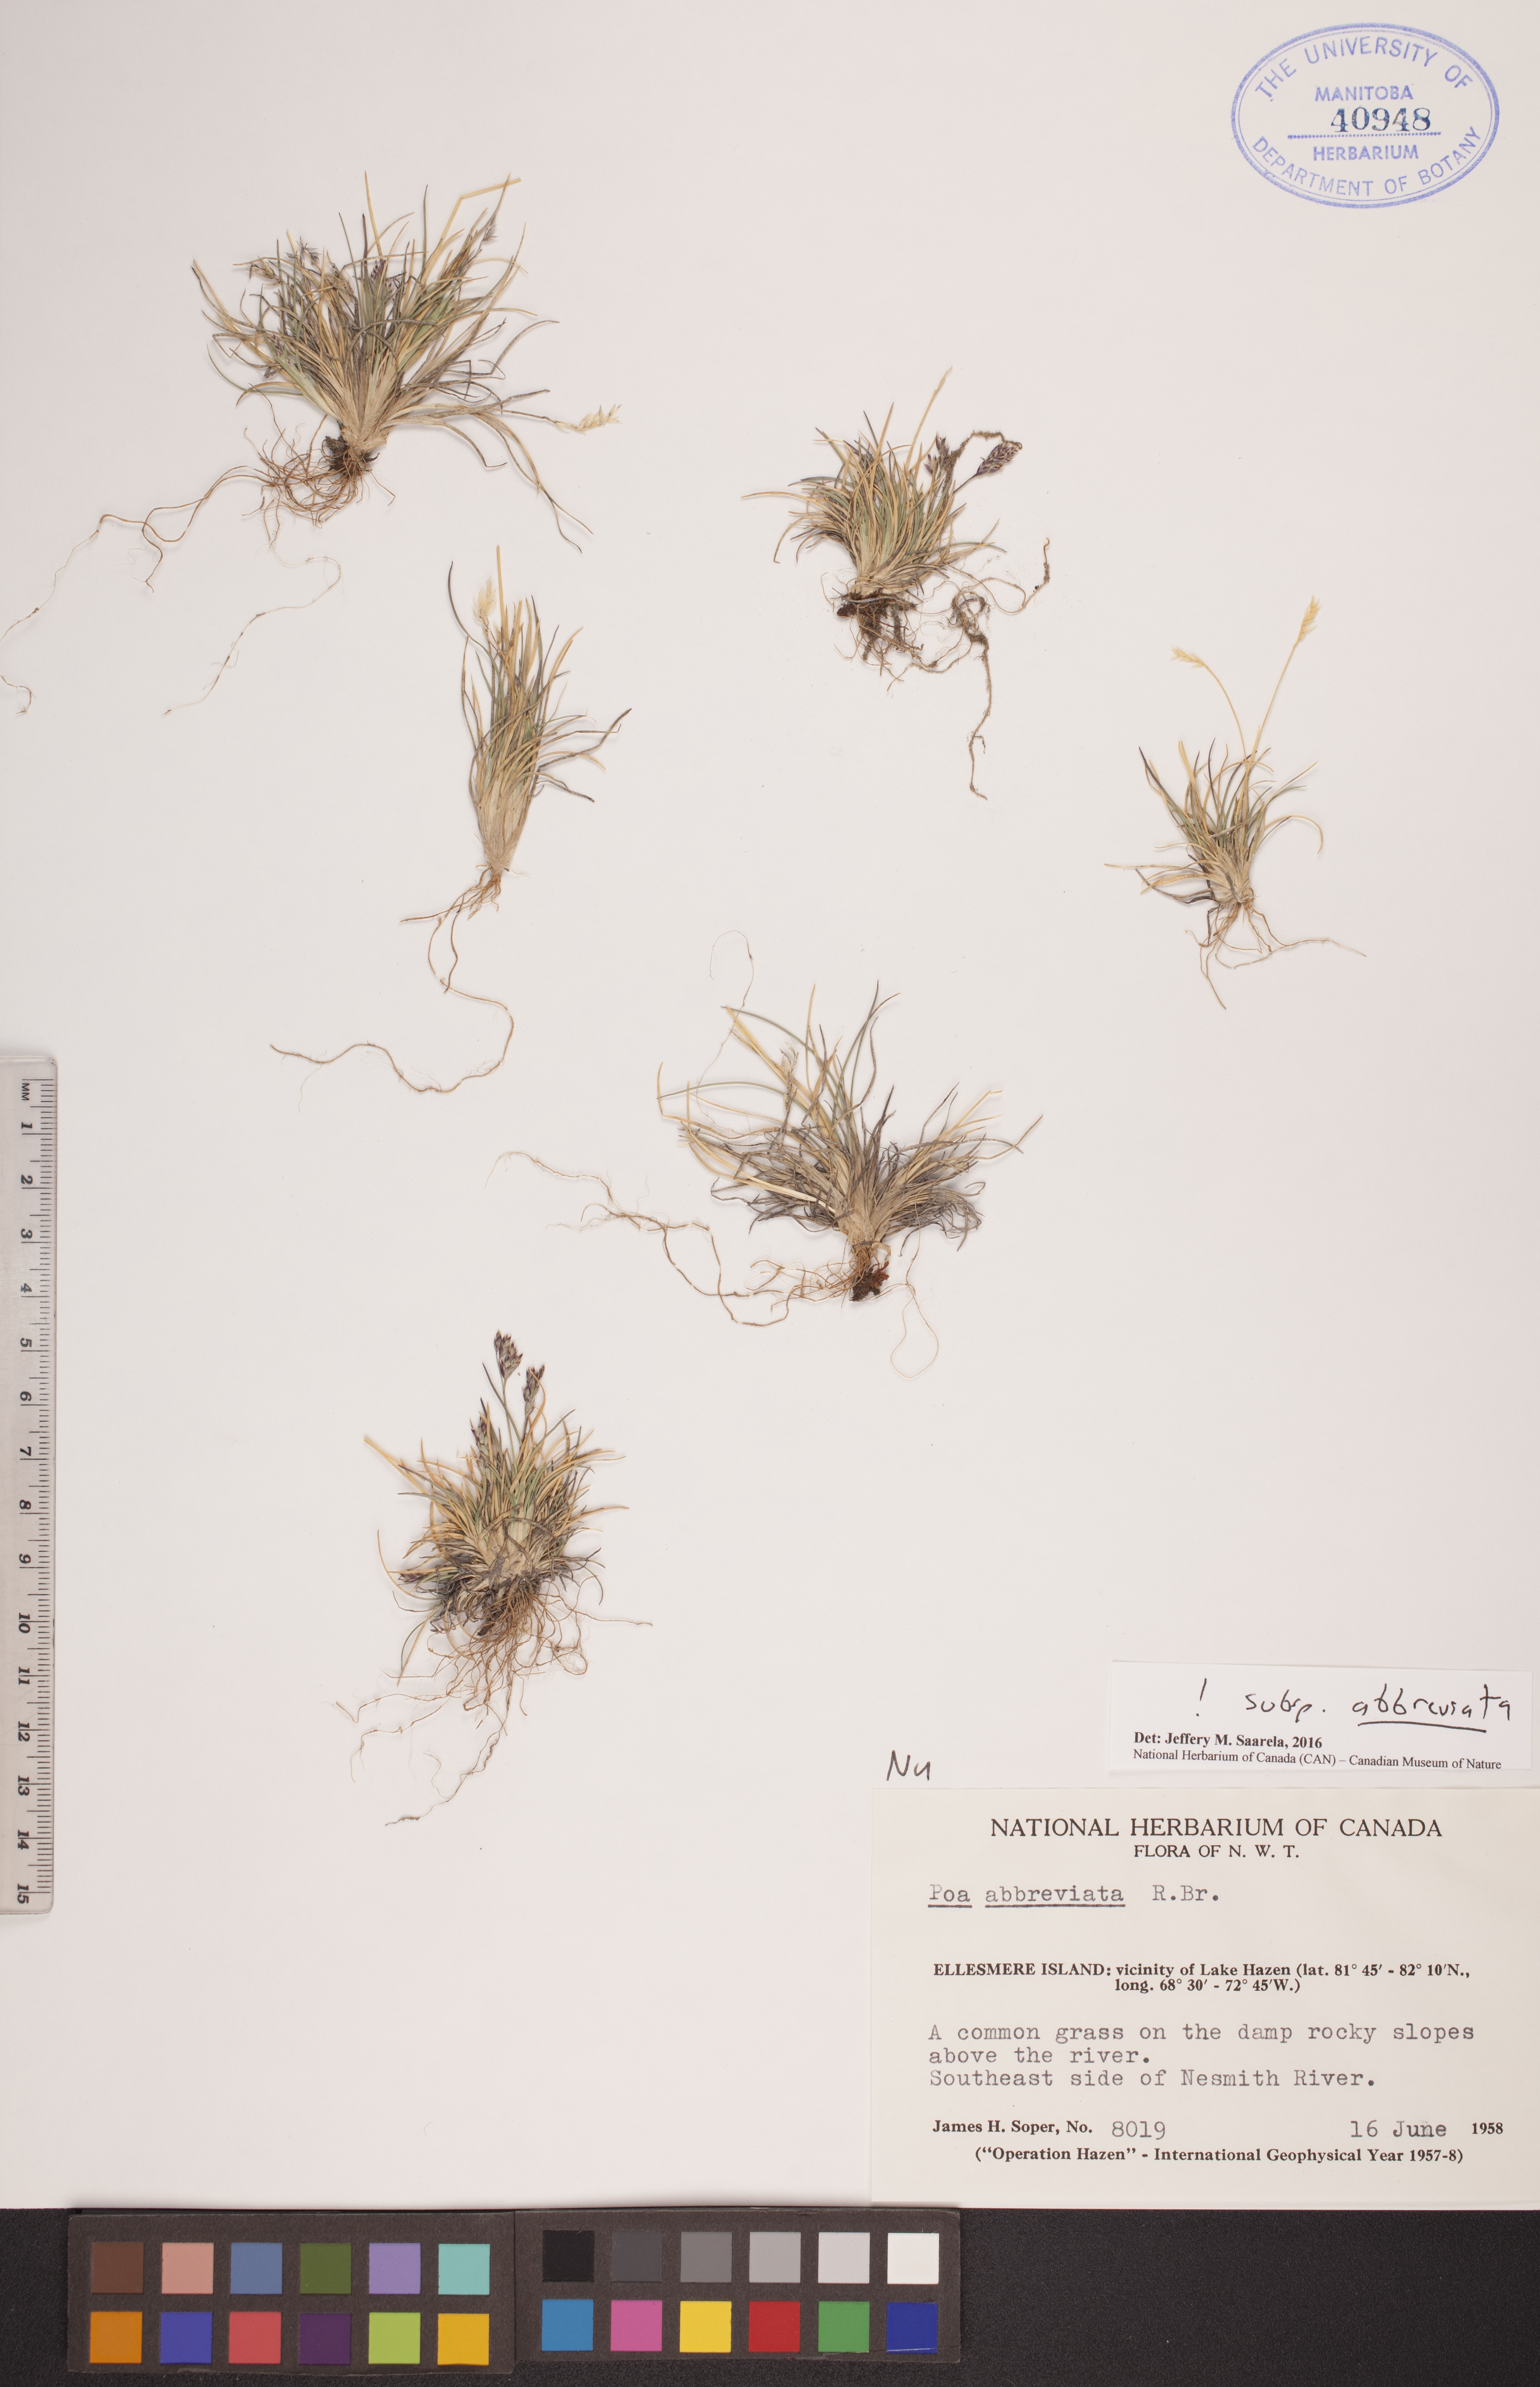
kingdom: Plantae
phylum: Tracheophyta
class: Liliopsida
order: Poales
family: Poaceae
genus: Poa
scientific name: Poa abbreviata
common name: Abbreviated bluegrass
